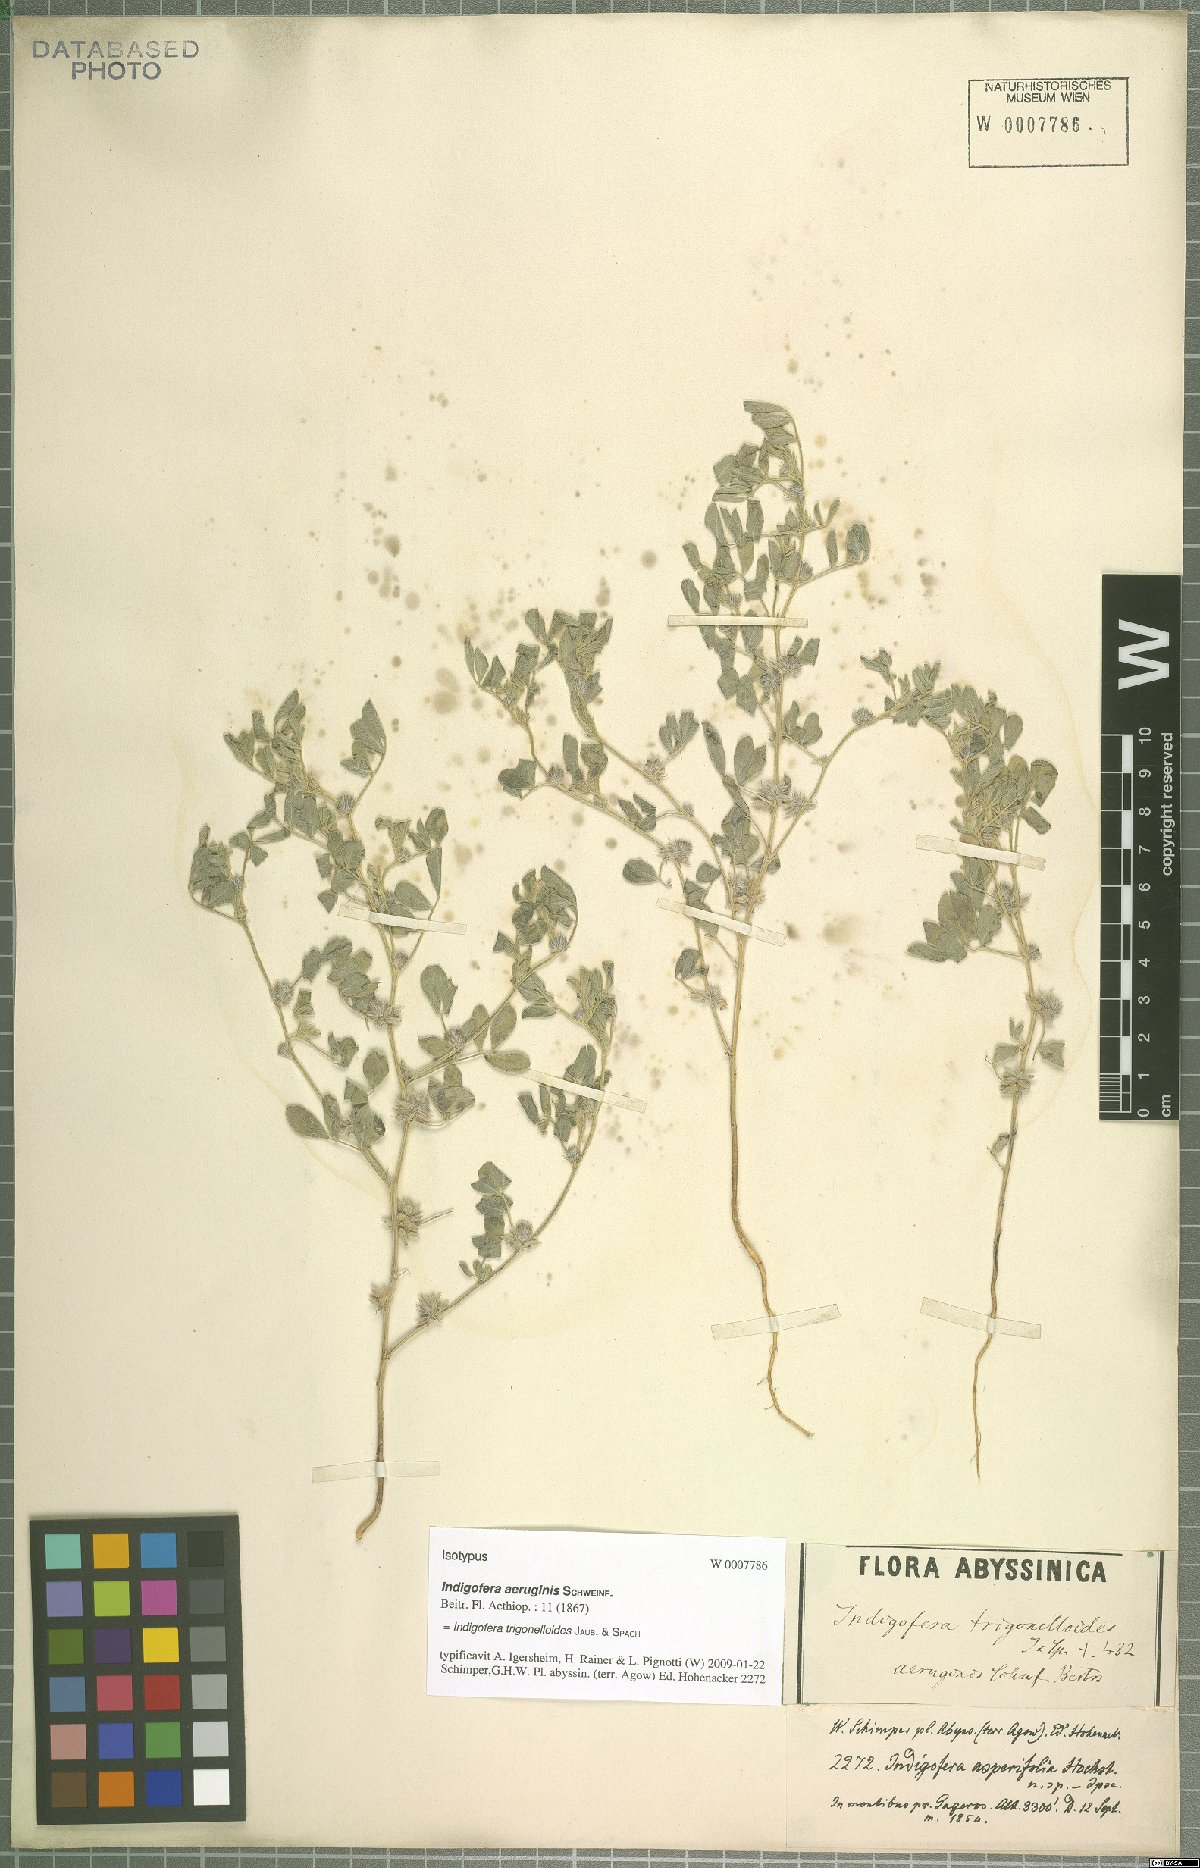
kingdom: Plantae
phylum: Tracheophyta
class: Magnoliopsida
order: Fabales
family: Fabaceae
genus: Indigofera
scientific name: Indigofera trigonelloides
